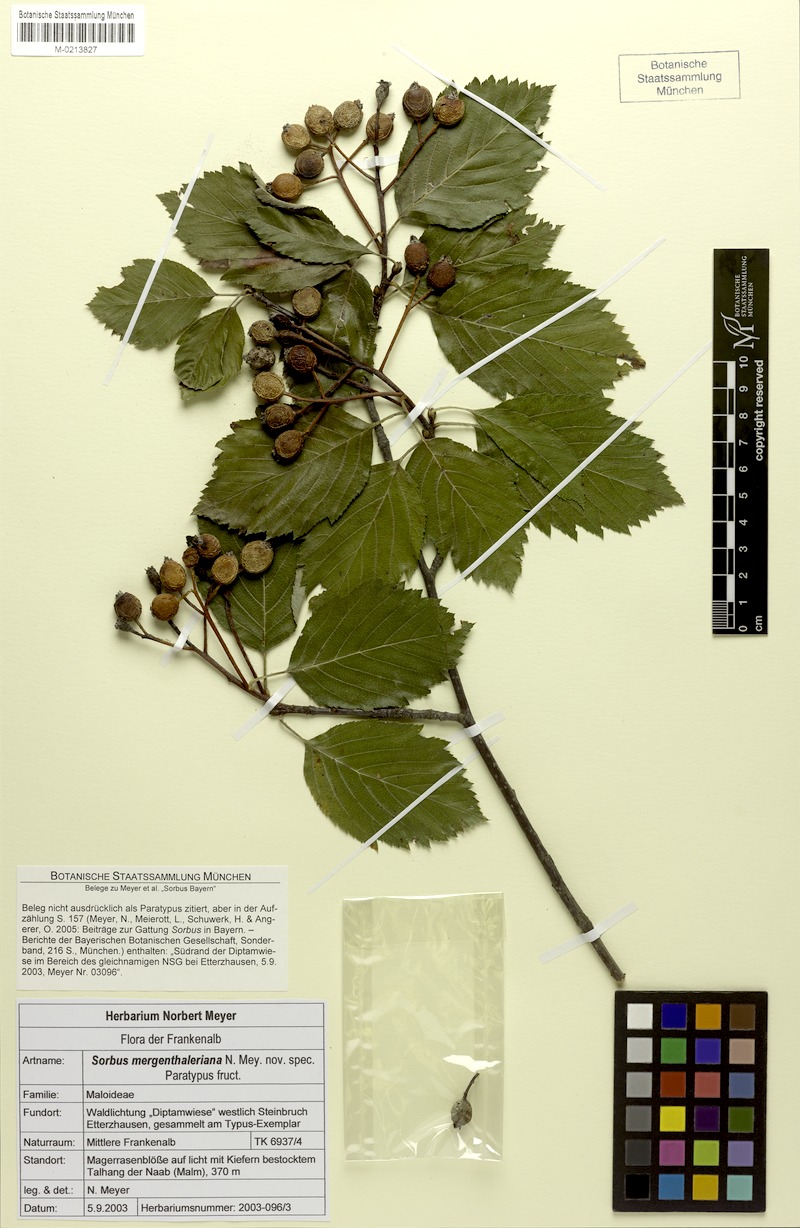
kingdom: Plantae
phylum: Tracheophyta
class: Magnoliopsida
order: Rosales
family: Rosaceae
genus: Karpatiosorbus
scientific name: Karpatiosorbus mergenthaleriana
